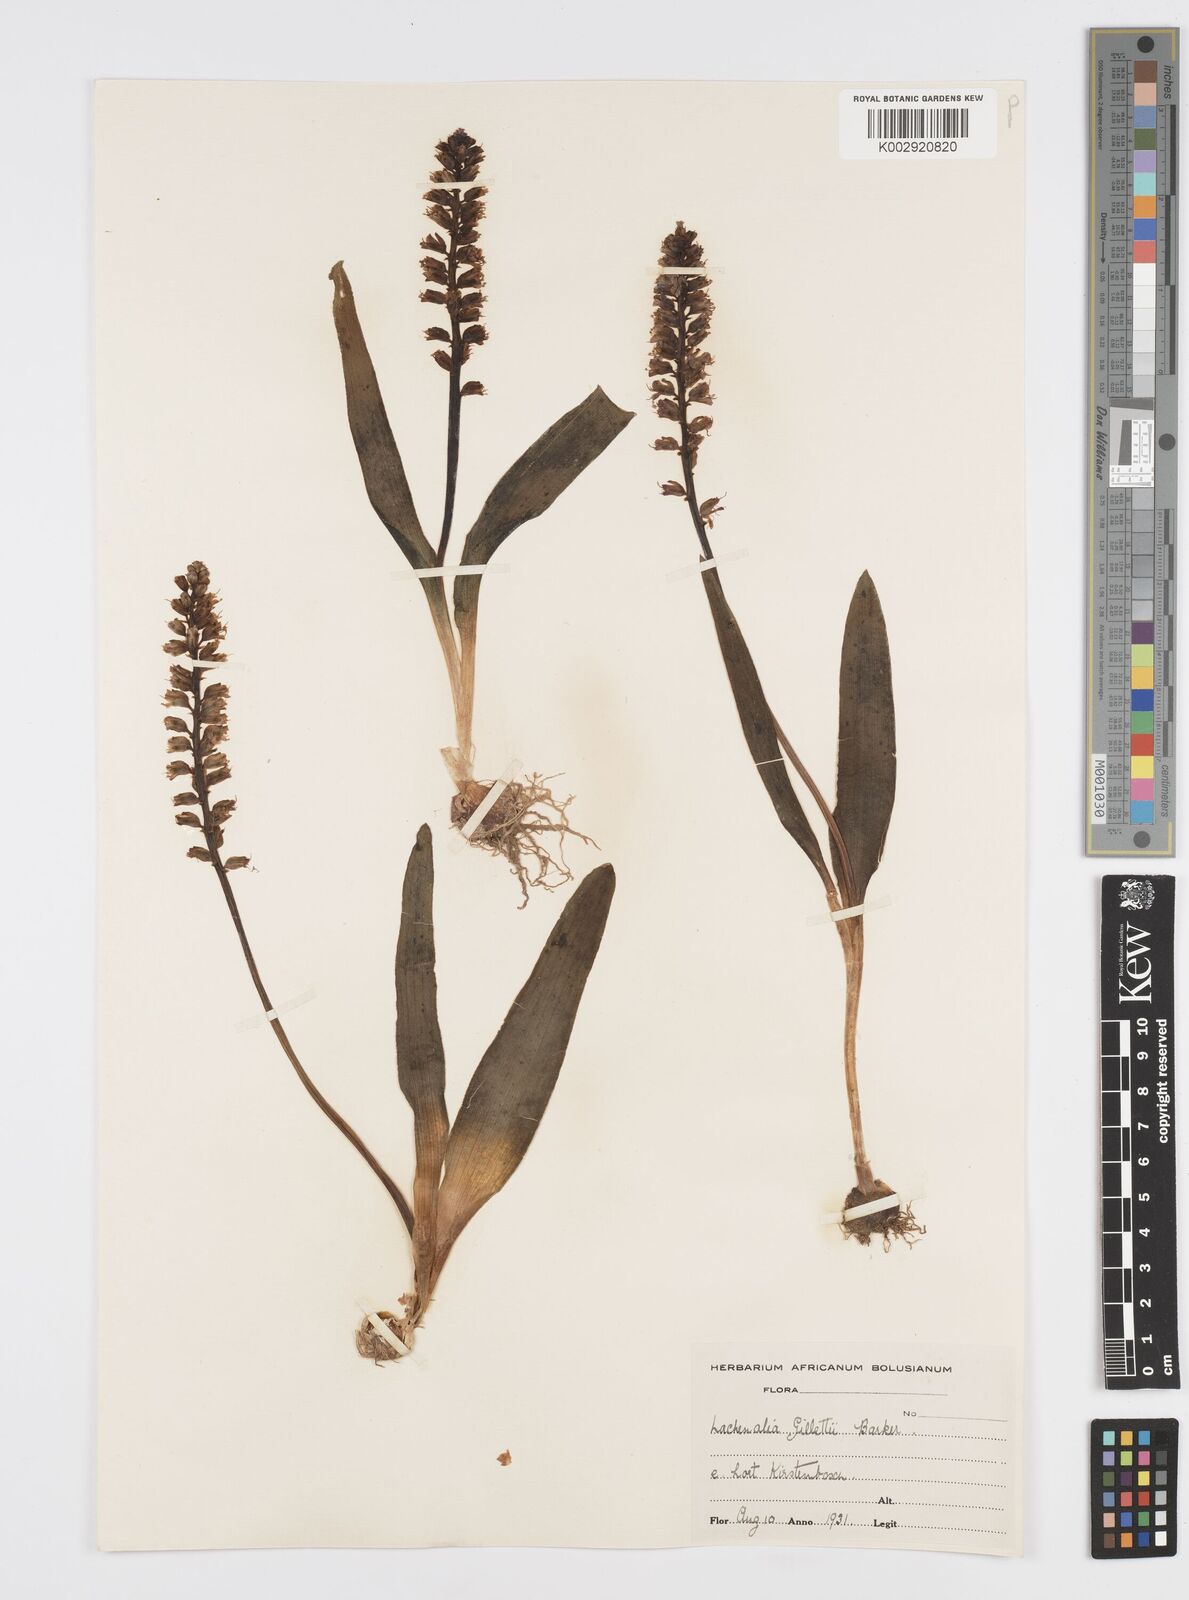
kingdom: Plantae
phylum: Tracheophyta
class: Liliopsida
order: Asparagales
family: Asparagaceae
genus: Lachenalia
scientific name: Lachenalia pallida
